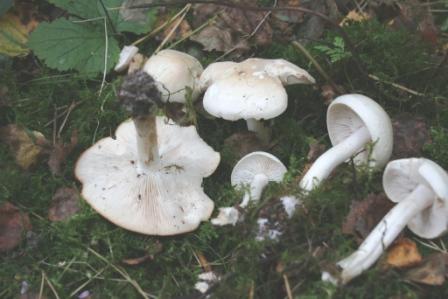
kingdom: Fungi
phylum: Basidiomycota
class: Agaricomycetes
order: Agaricales
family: Tricholomataceae
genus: Tricholoma
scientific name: Tricholoma stiparophyllum
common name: hvid ridderhat
